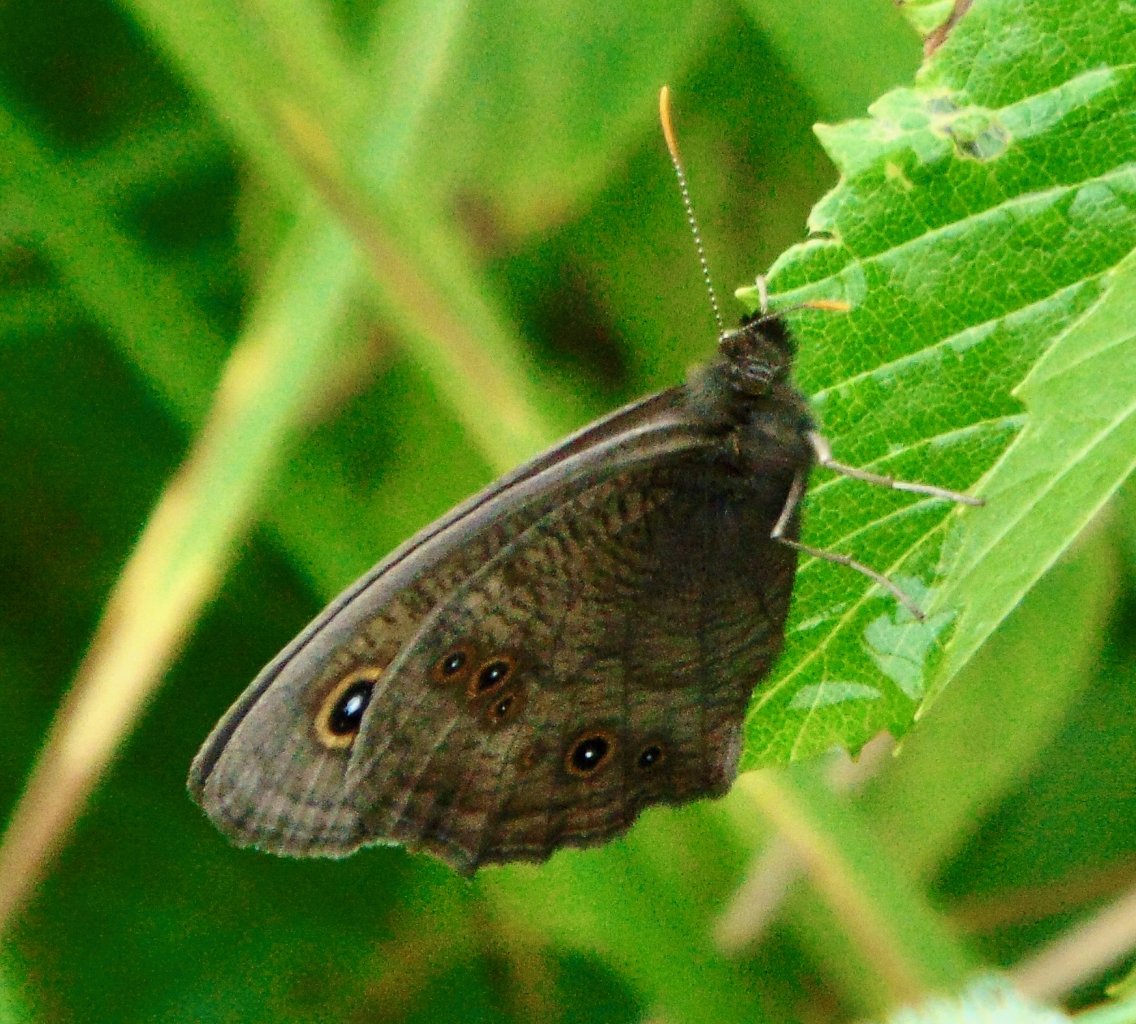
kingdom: Animalia
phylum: Arthropoda
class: Insecta
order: Lepidoptera
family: Nymphalidae
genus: Cercyonis
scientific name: Cercyonis pegala
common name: Common Wood-Nymph
